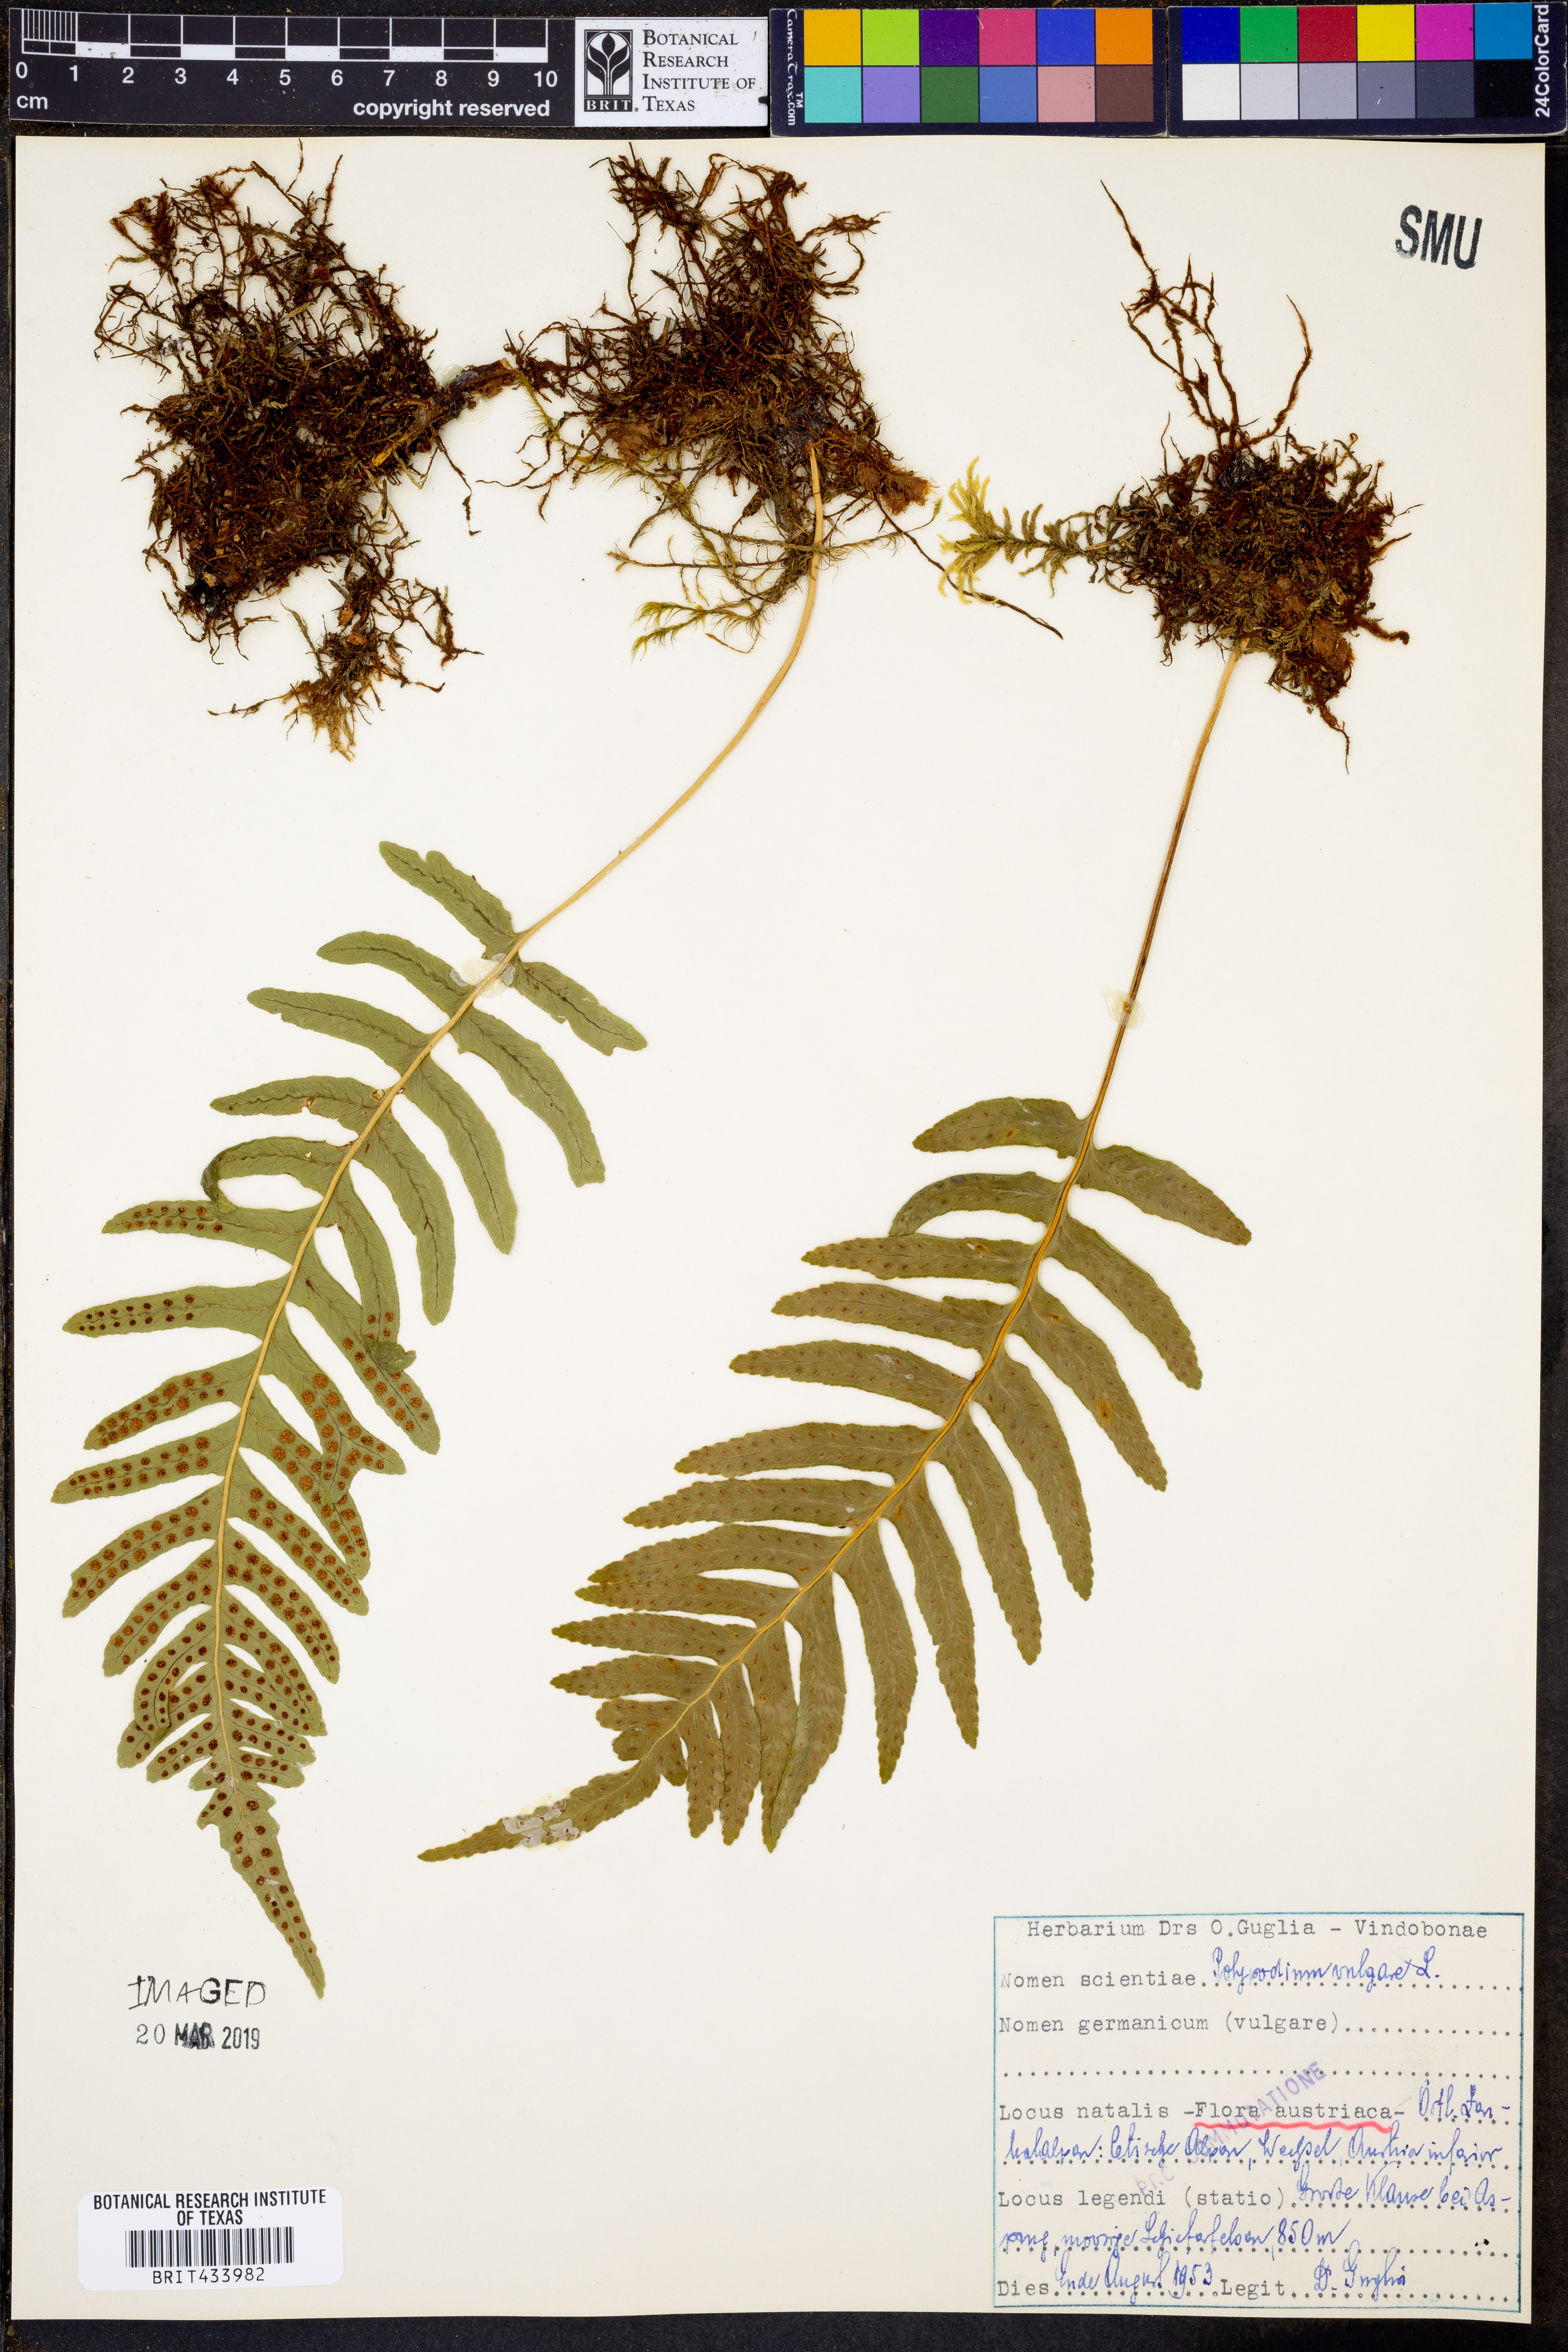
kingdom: Plantae
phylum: Tracheophyta
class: Polypodiopsida
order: Polypodiales
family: Polypodiaceae
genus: Polypodium
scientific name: Polypodium vulgare
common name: Common polypody
